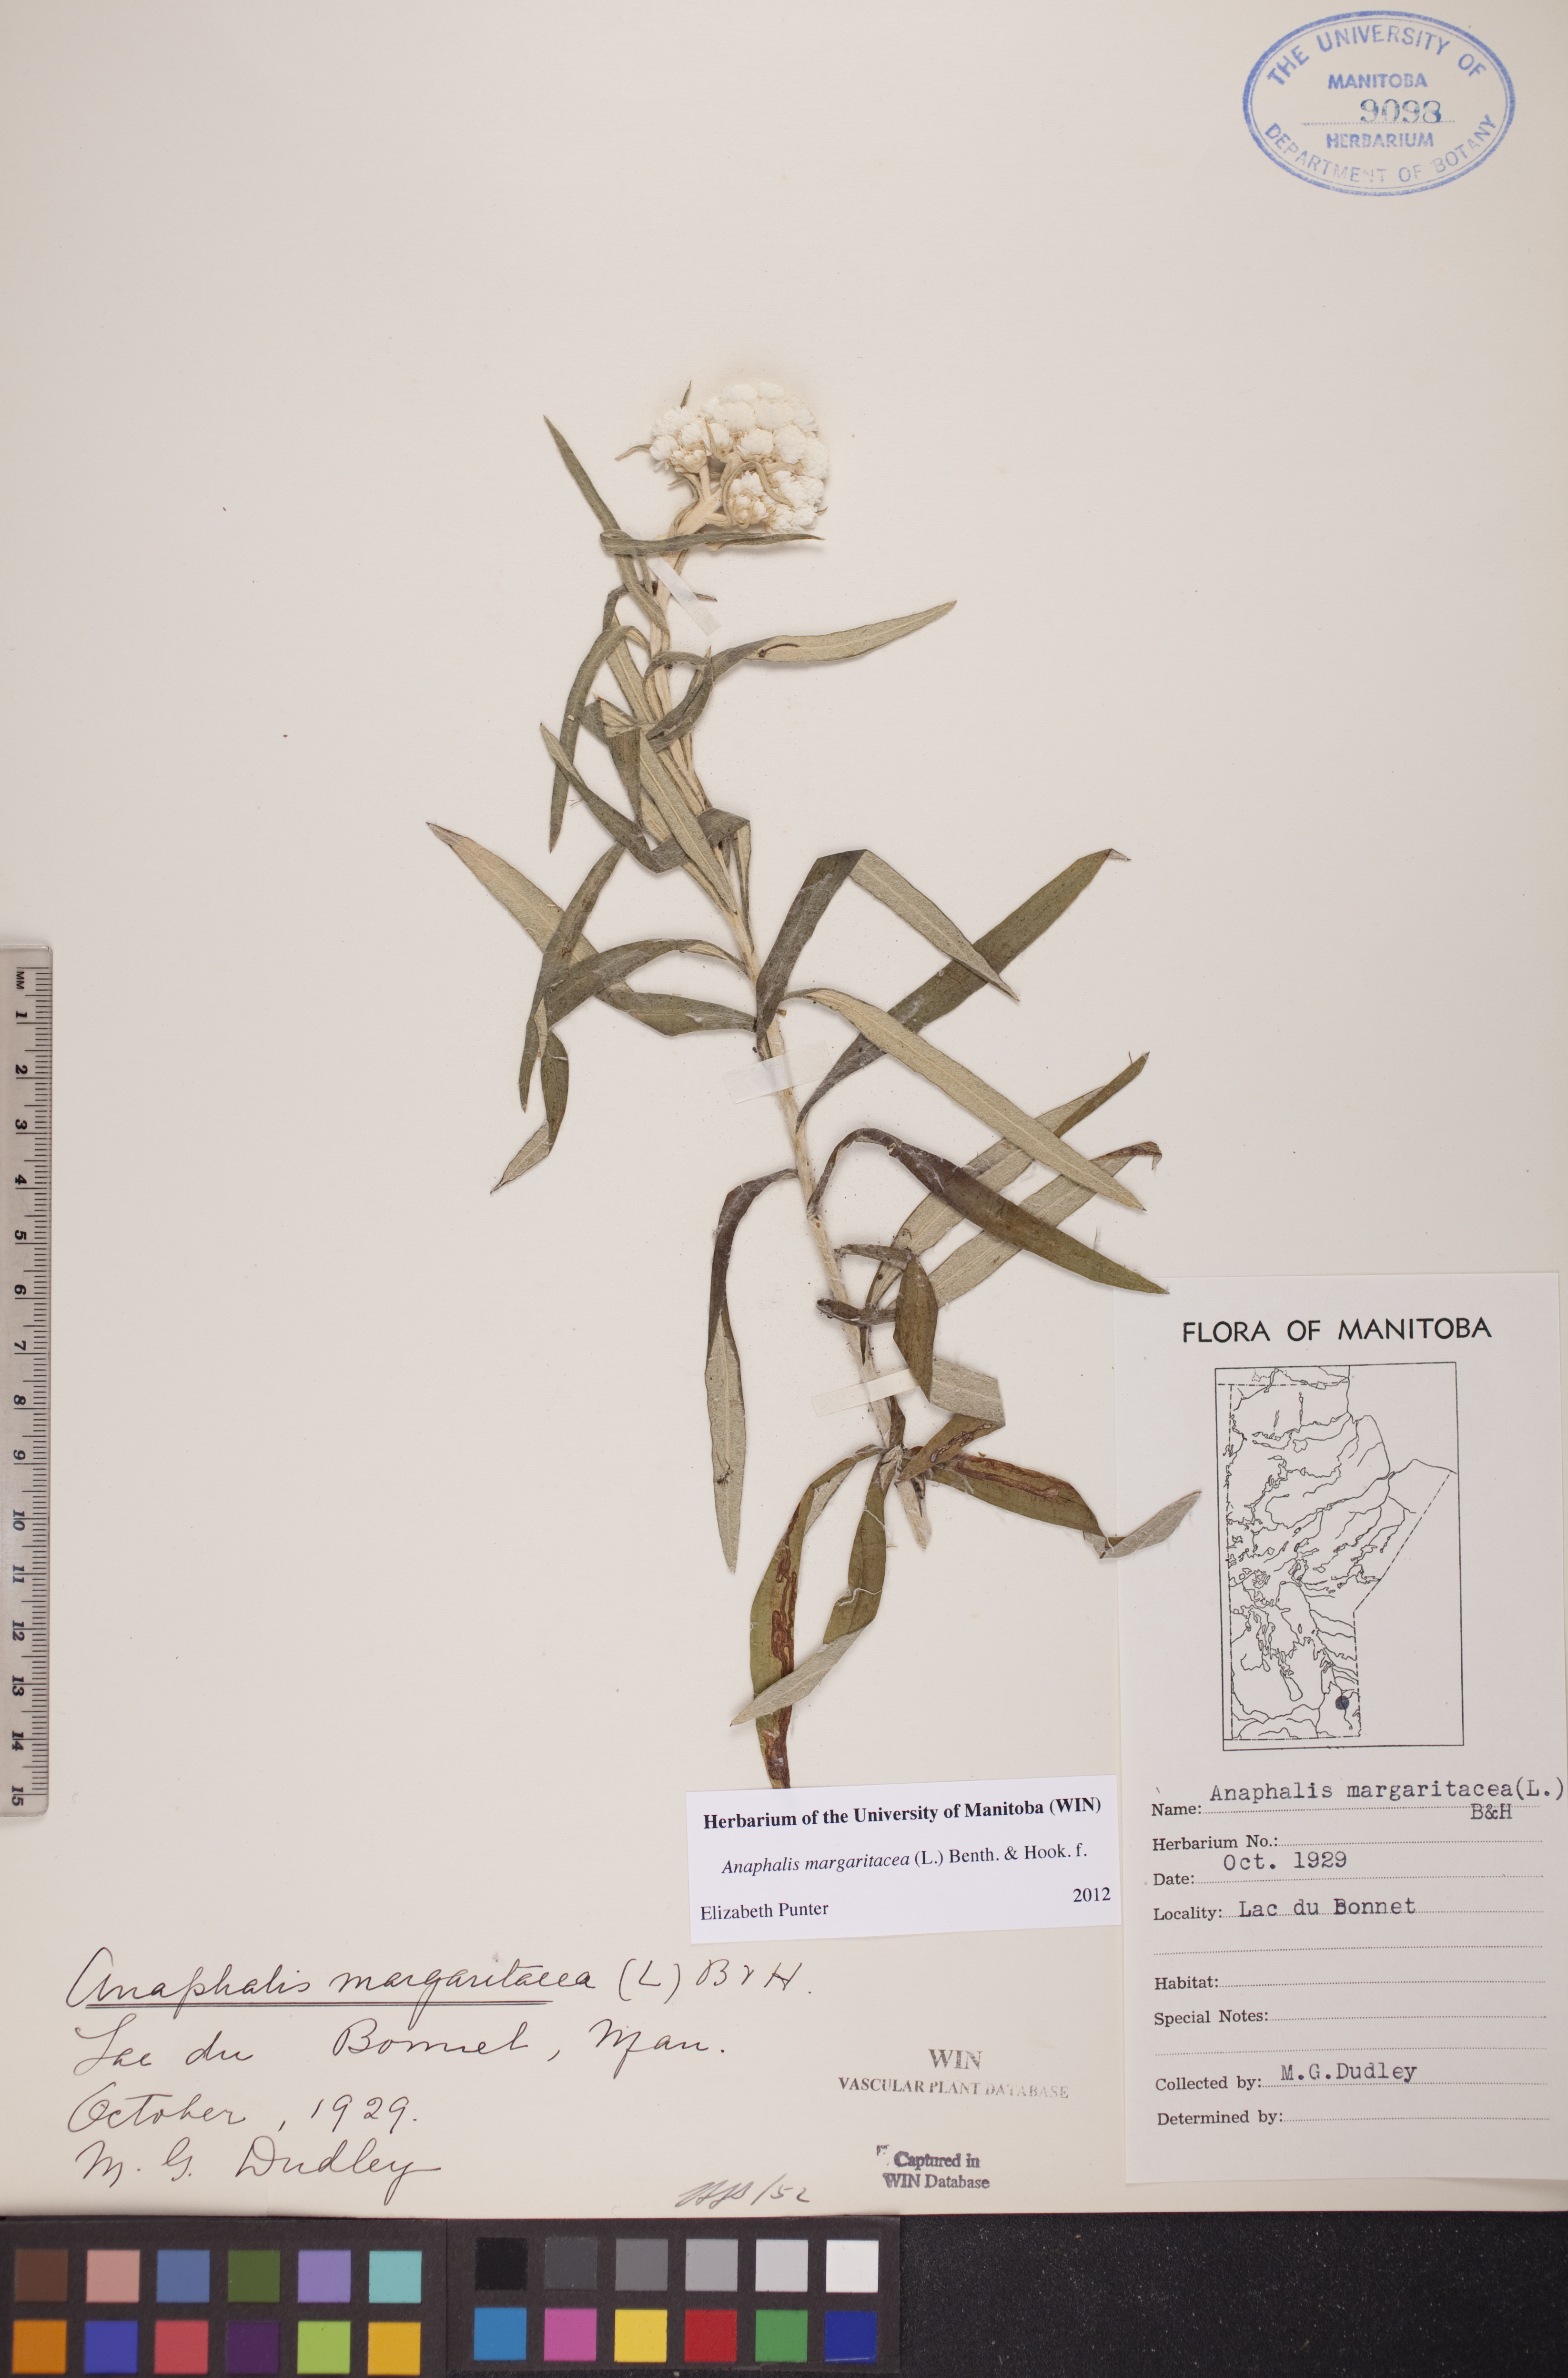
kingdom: Plantae
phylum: Tracheophyta
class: Magnoliopsida
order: Asterales
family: Asteraceae
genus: Anaphalis
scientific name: Anaphalis margaritacea
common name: Pearly everlasting
